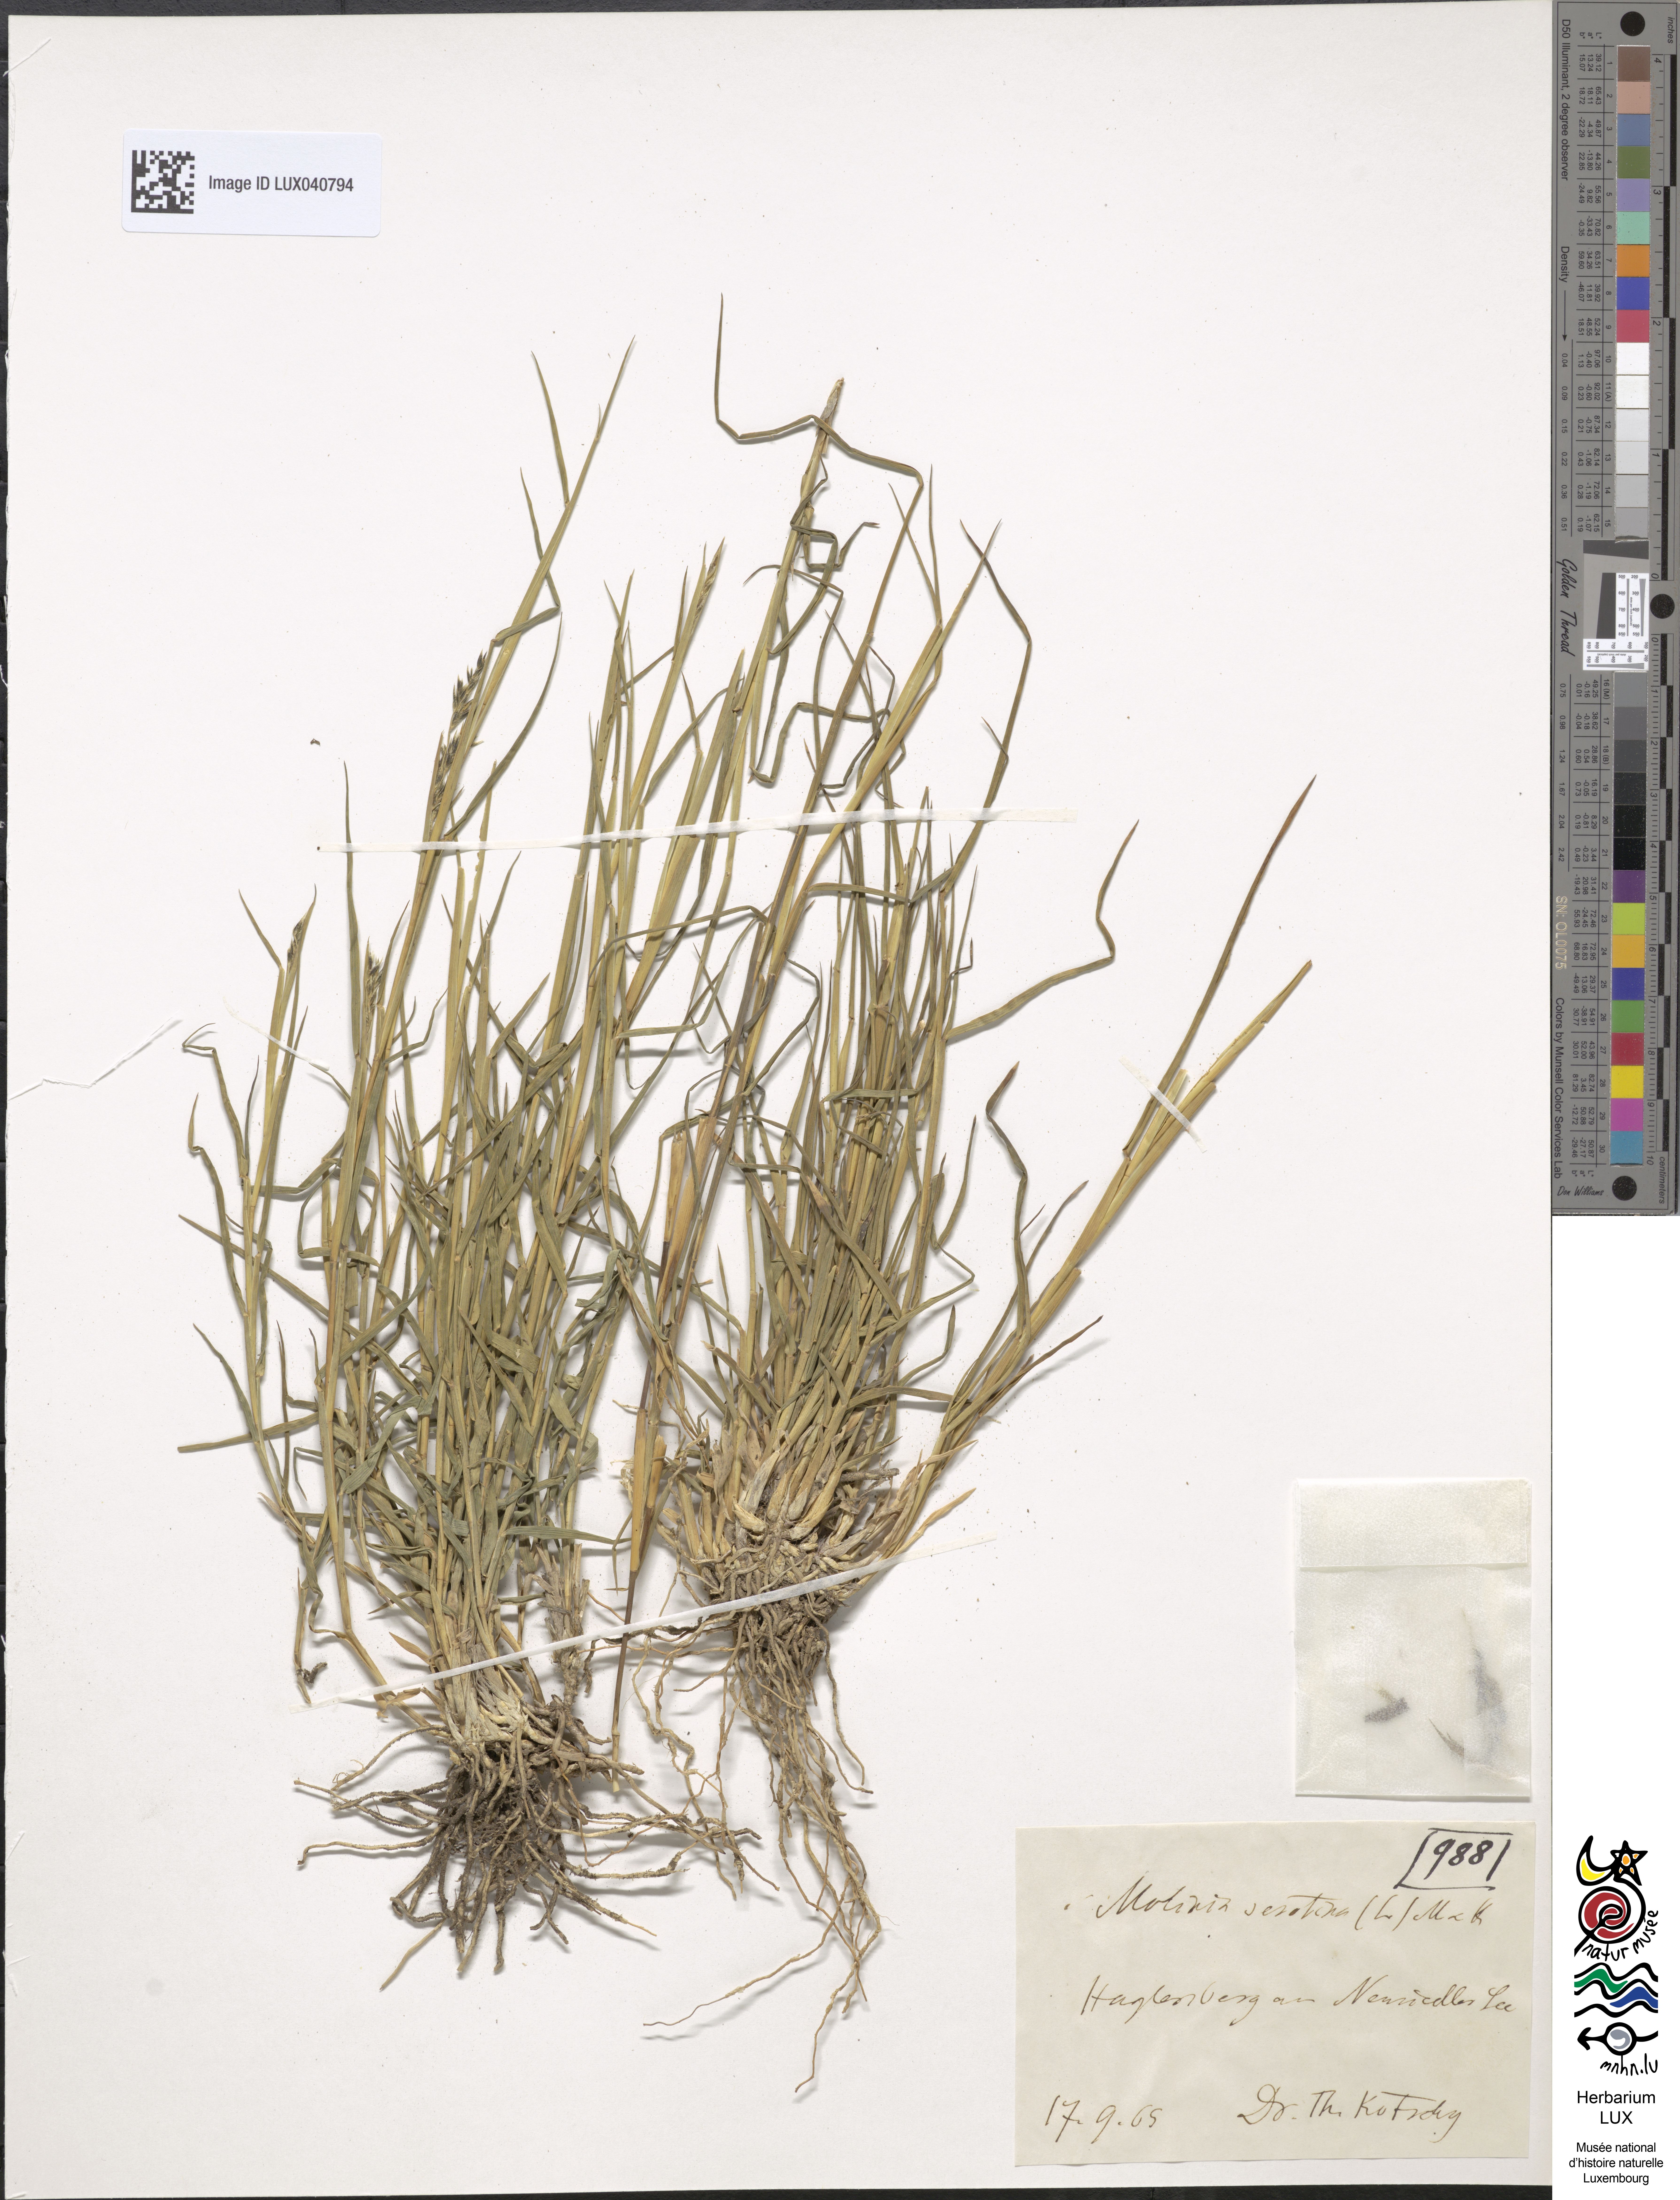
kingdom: Plantae
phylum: Tracheophyta
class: Liliopsida
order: Poales
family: Poaceae
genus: Cleistogenes
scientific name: Cleistogenes serotina
